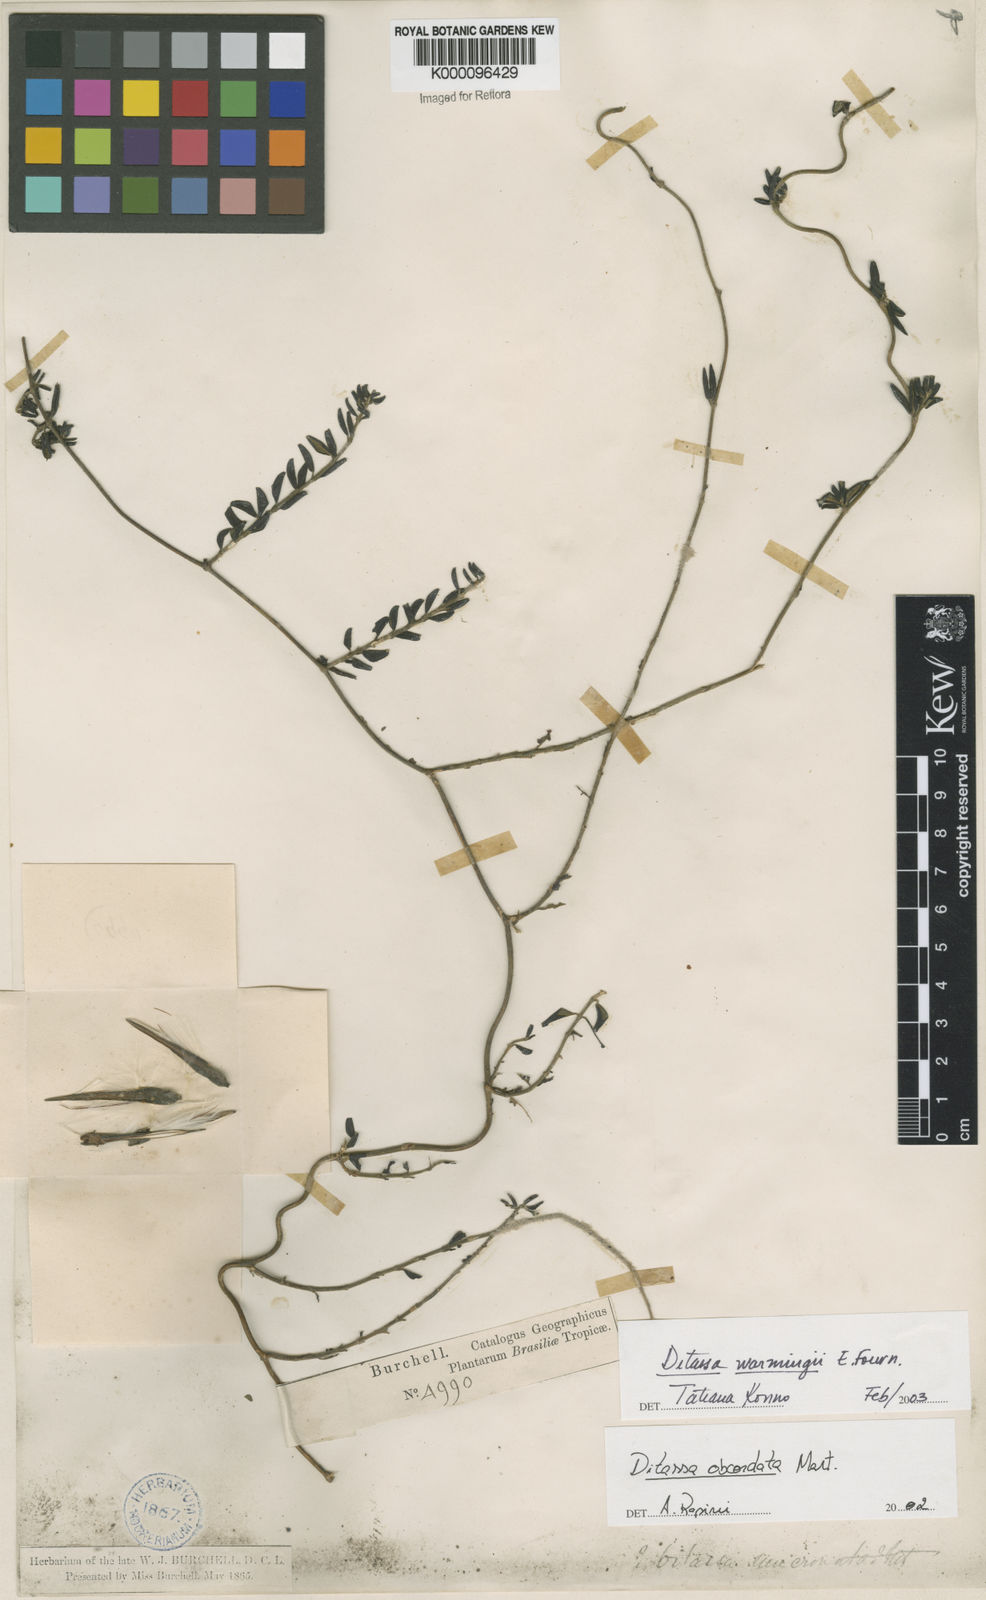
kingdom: Plantae
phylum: Tracheophyta
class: Magnoliopsida
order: Gentianales
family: Apocynaceae
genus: Ditassa
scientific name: Ditassa obcordata
